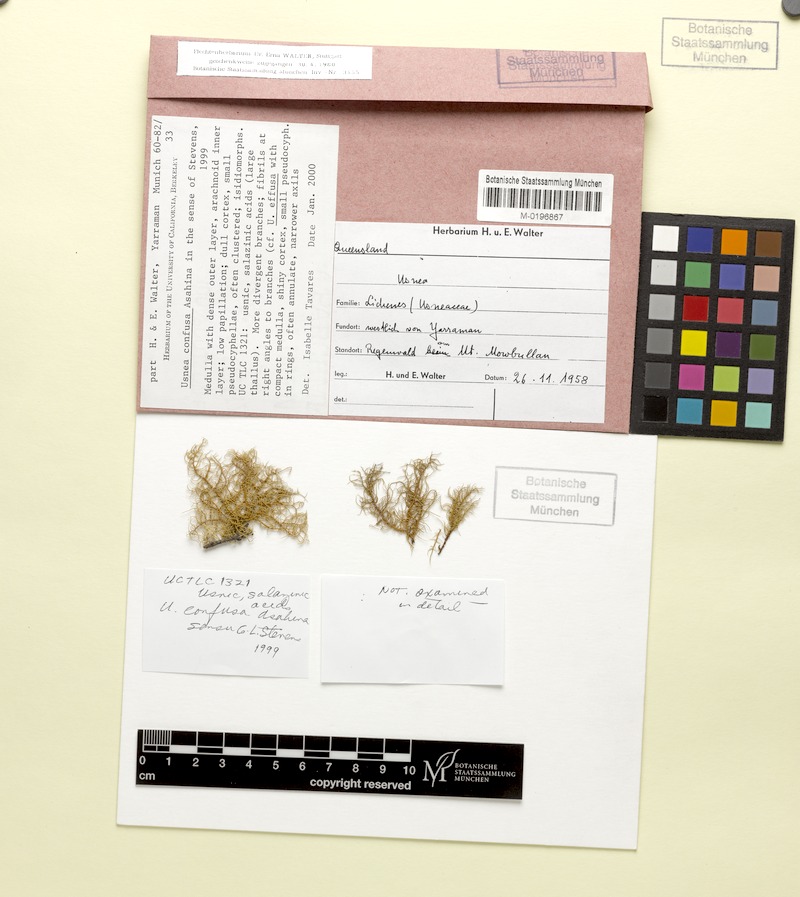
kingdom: Fungi
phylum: Ascomycota
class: Lecanoromycetes
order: Lecanorales
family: Parmeliaceae
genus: Usnea
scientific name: Usnea cornuta
